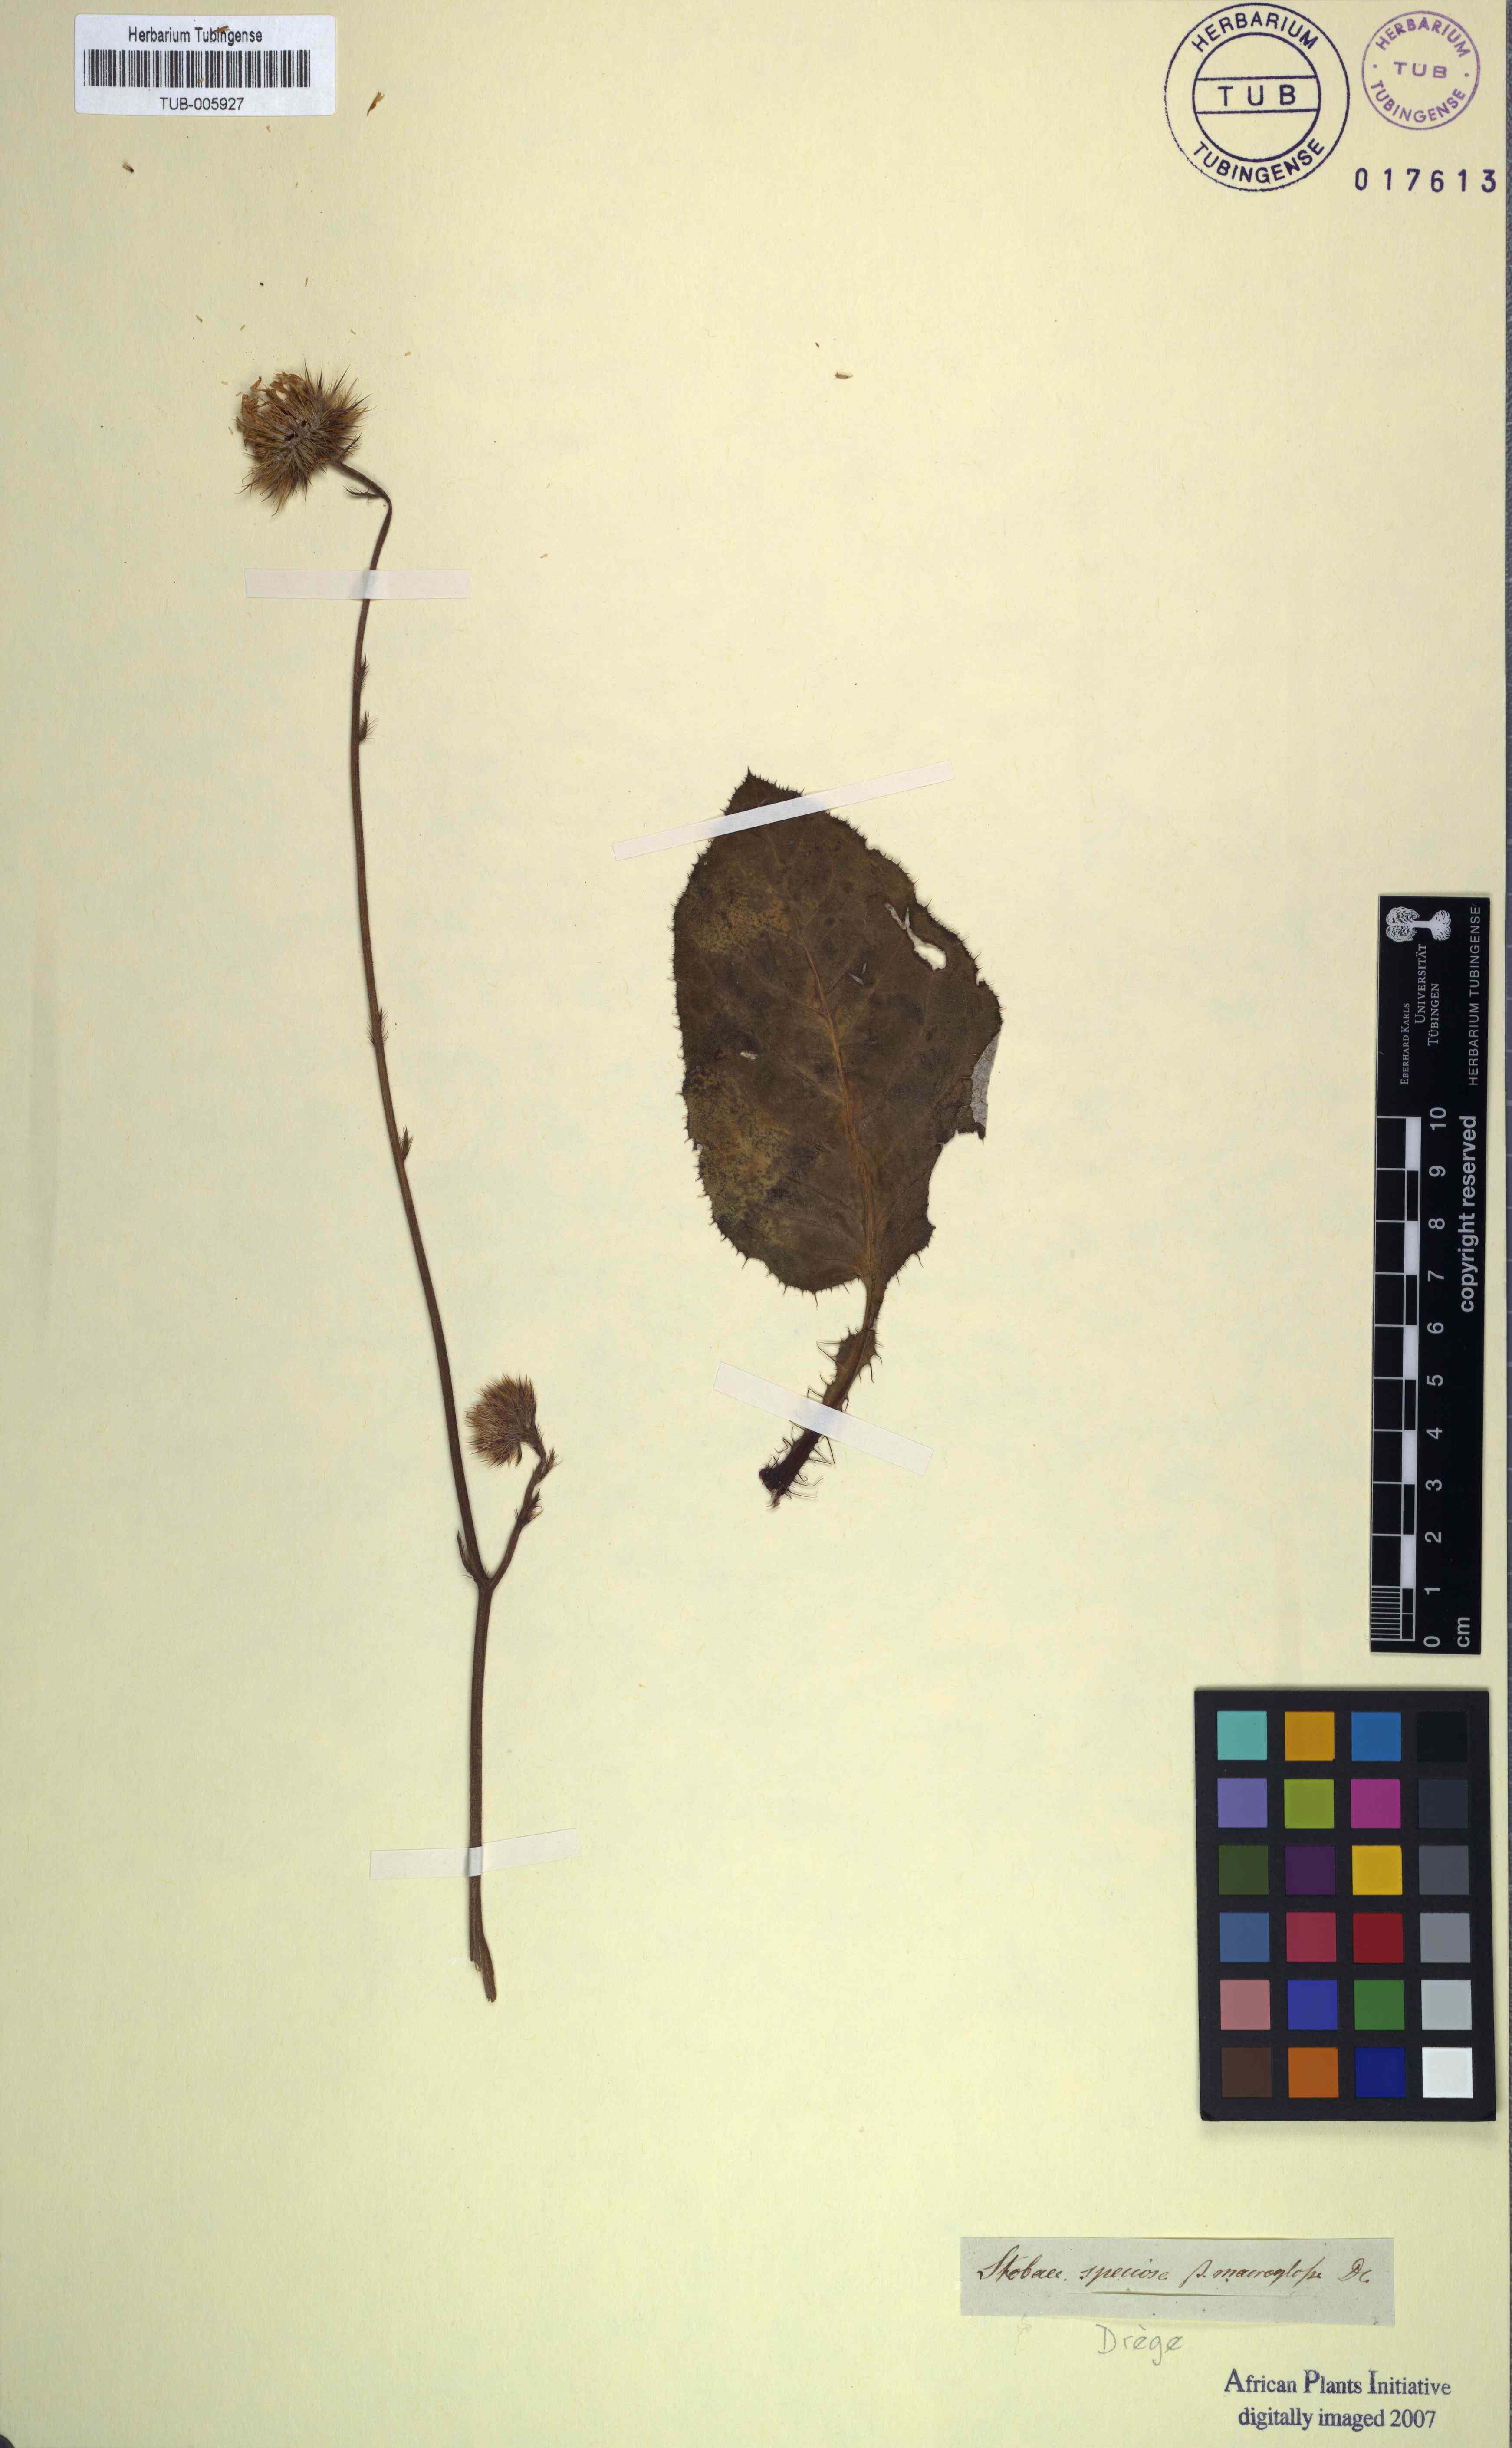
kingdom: Plantae
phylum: Tracheophyta
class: Magnoliopsida
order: Asterales
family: Asteraceae
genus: Berkheya
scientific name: Berkheya speciosa
